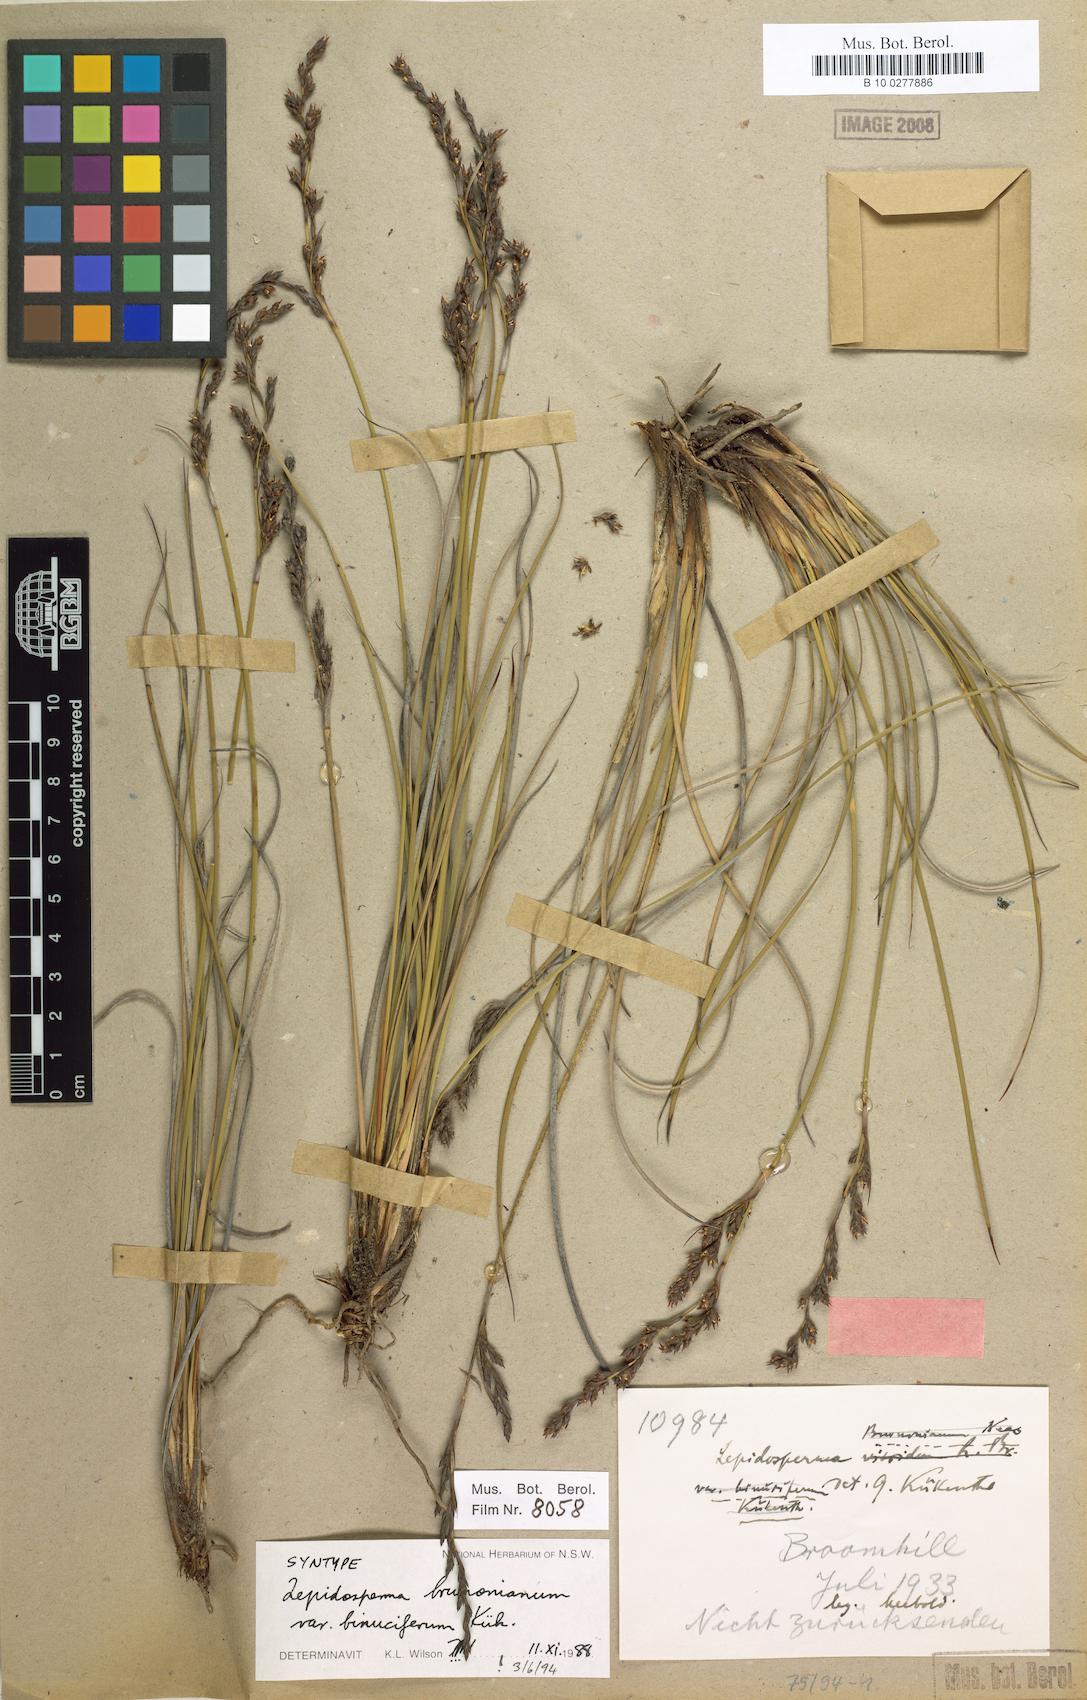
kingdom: Plantae
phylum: Tracheophyta
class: Liliopsida
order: Poales
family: Cyperaceae
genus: Lepidosperma
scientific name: Lepidosperma sieberi
